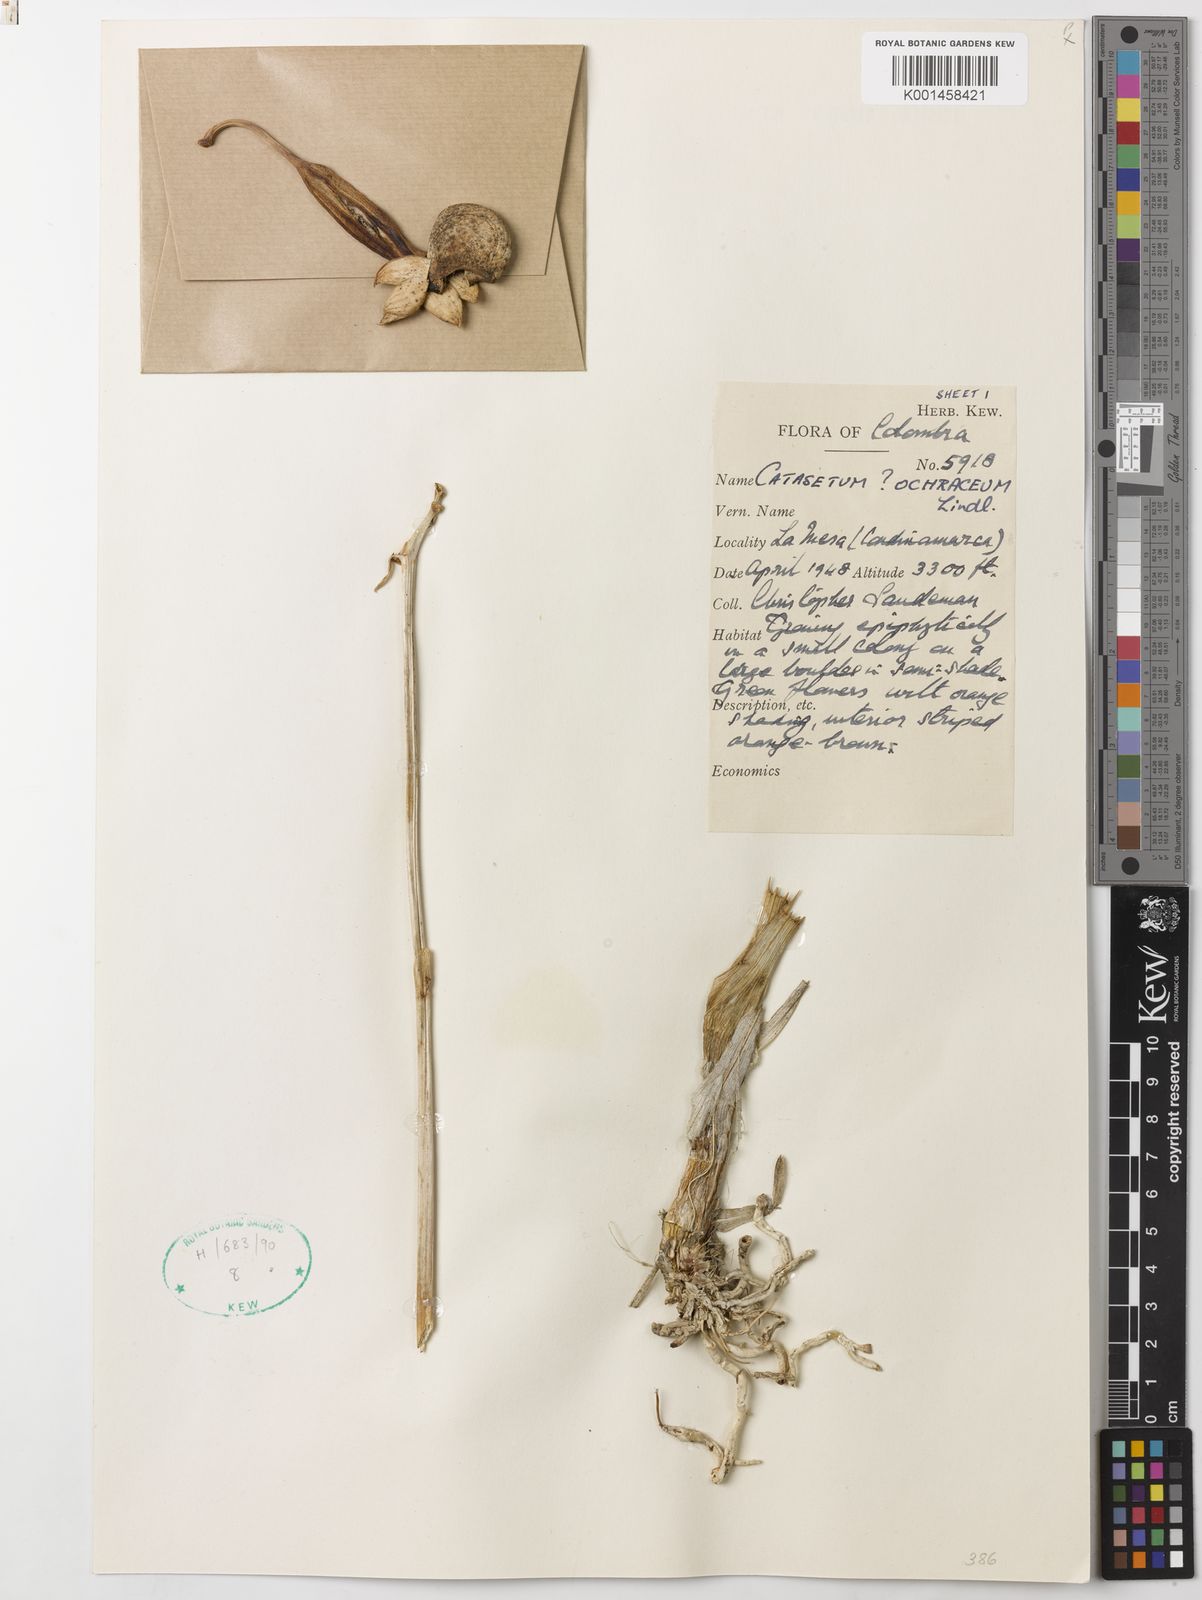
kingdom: Plantae
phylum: Tracheophyta
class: Liliopsida
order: Asparagales
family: Orchidaceae
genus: Catasetum
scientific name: Catasetum ochraceum
